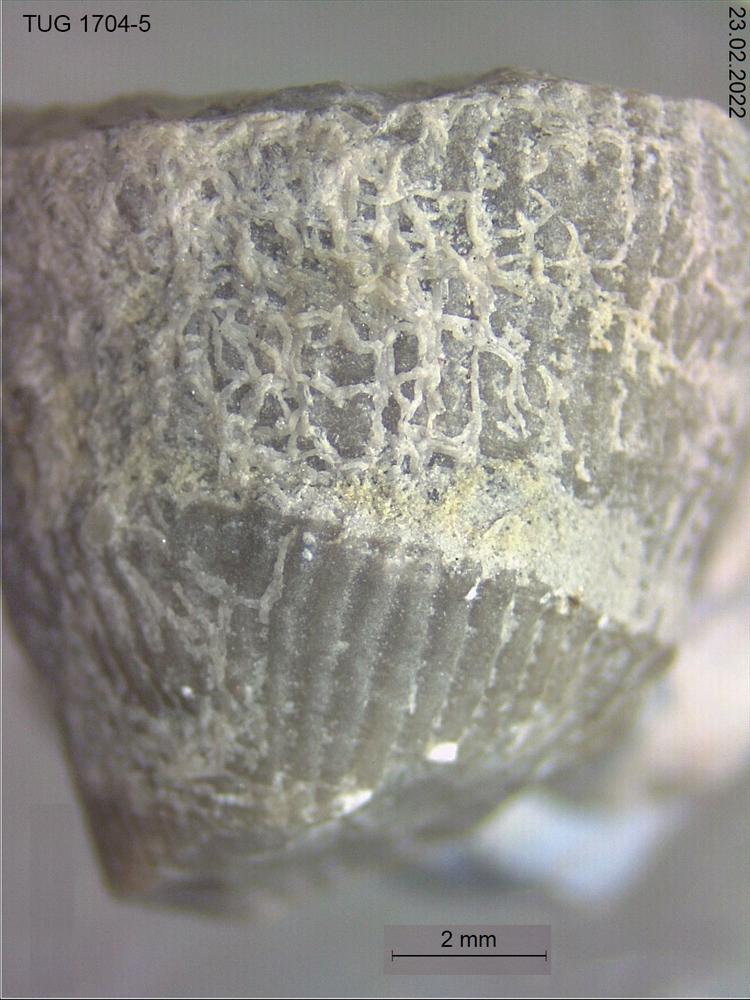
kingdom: Animalia
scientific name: Animalia
